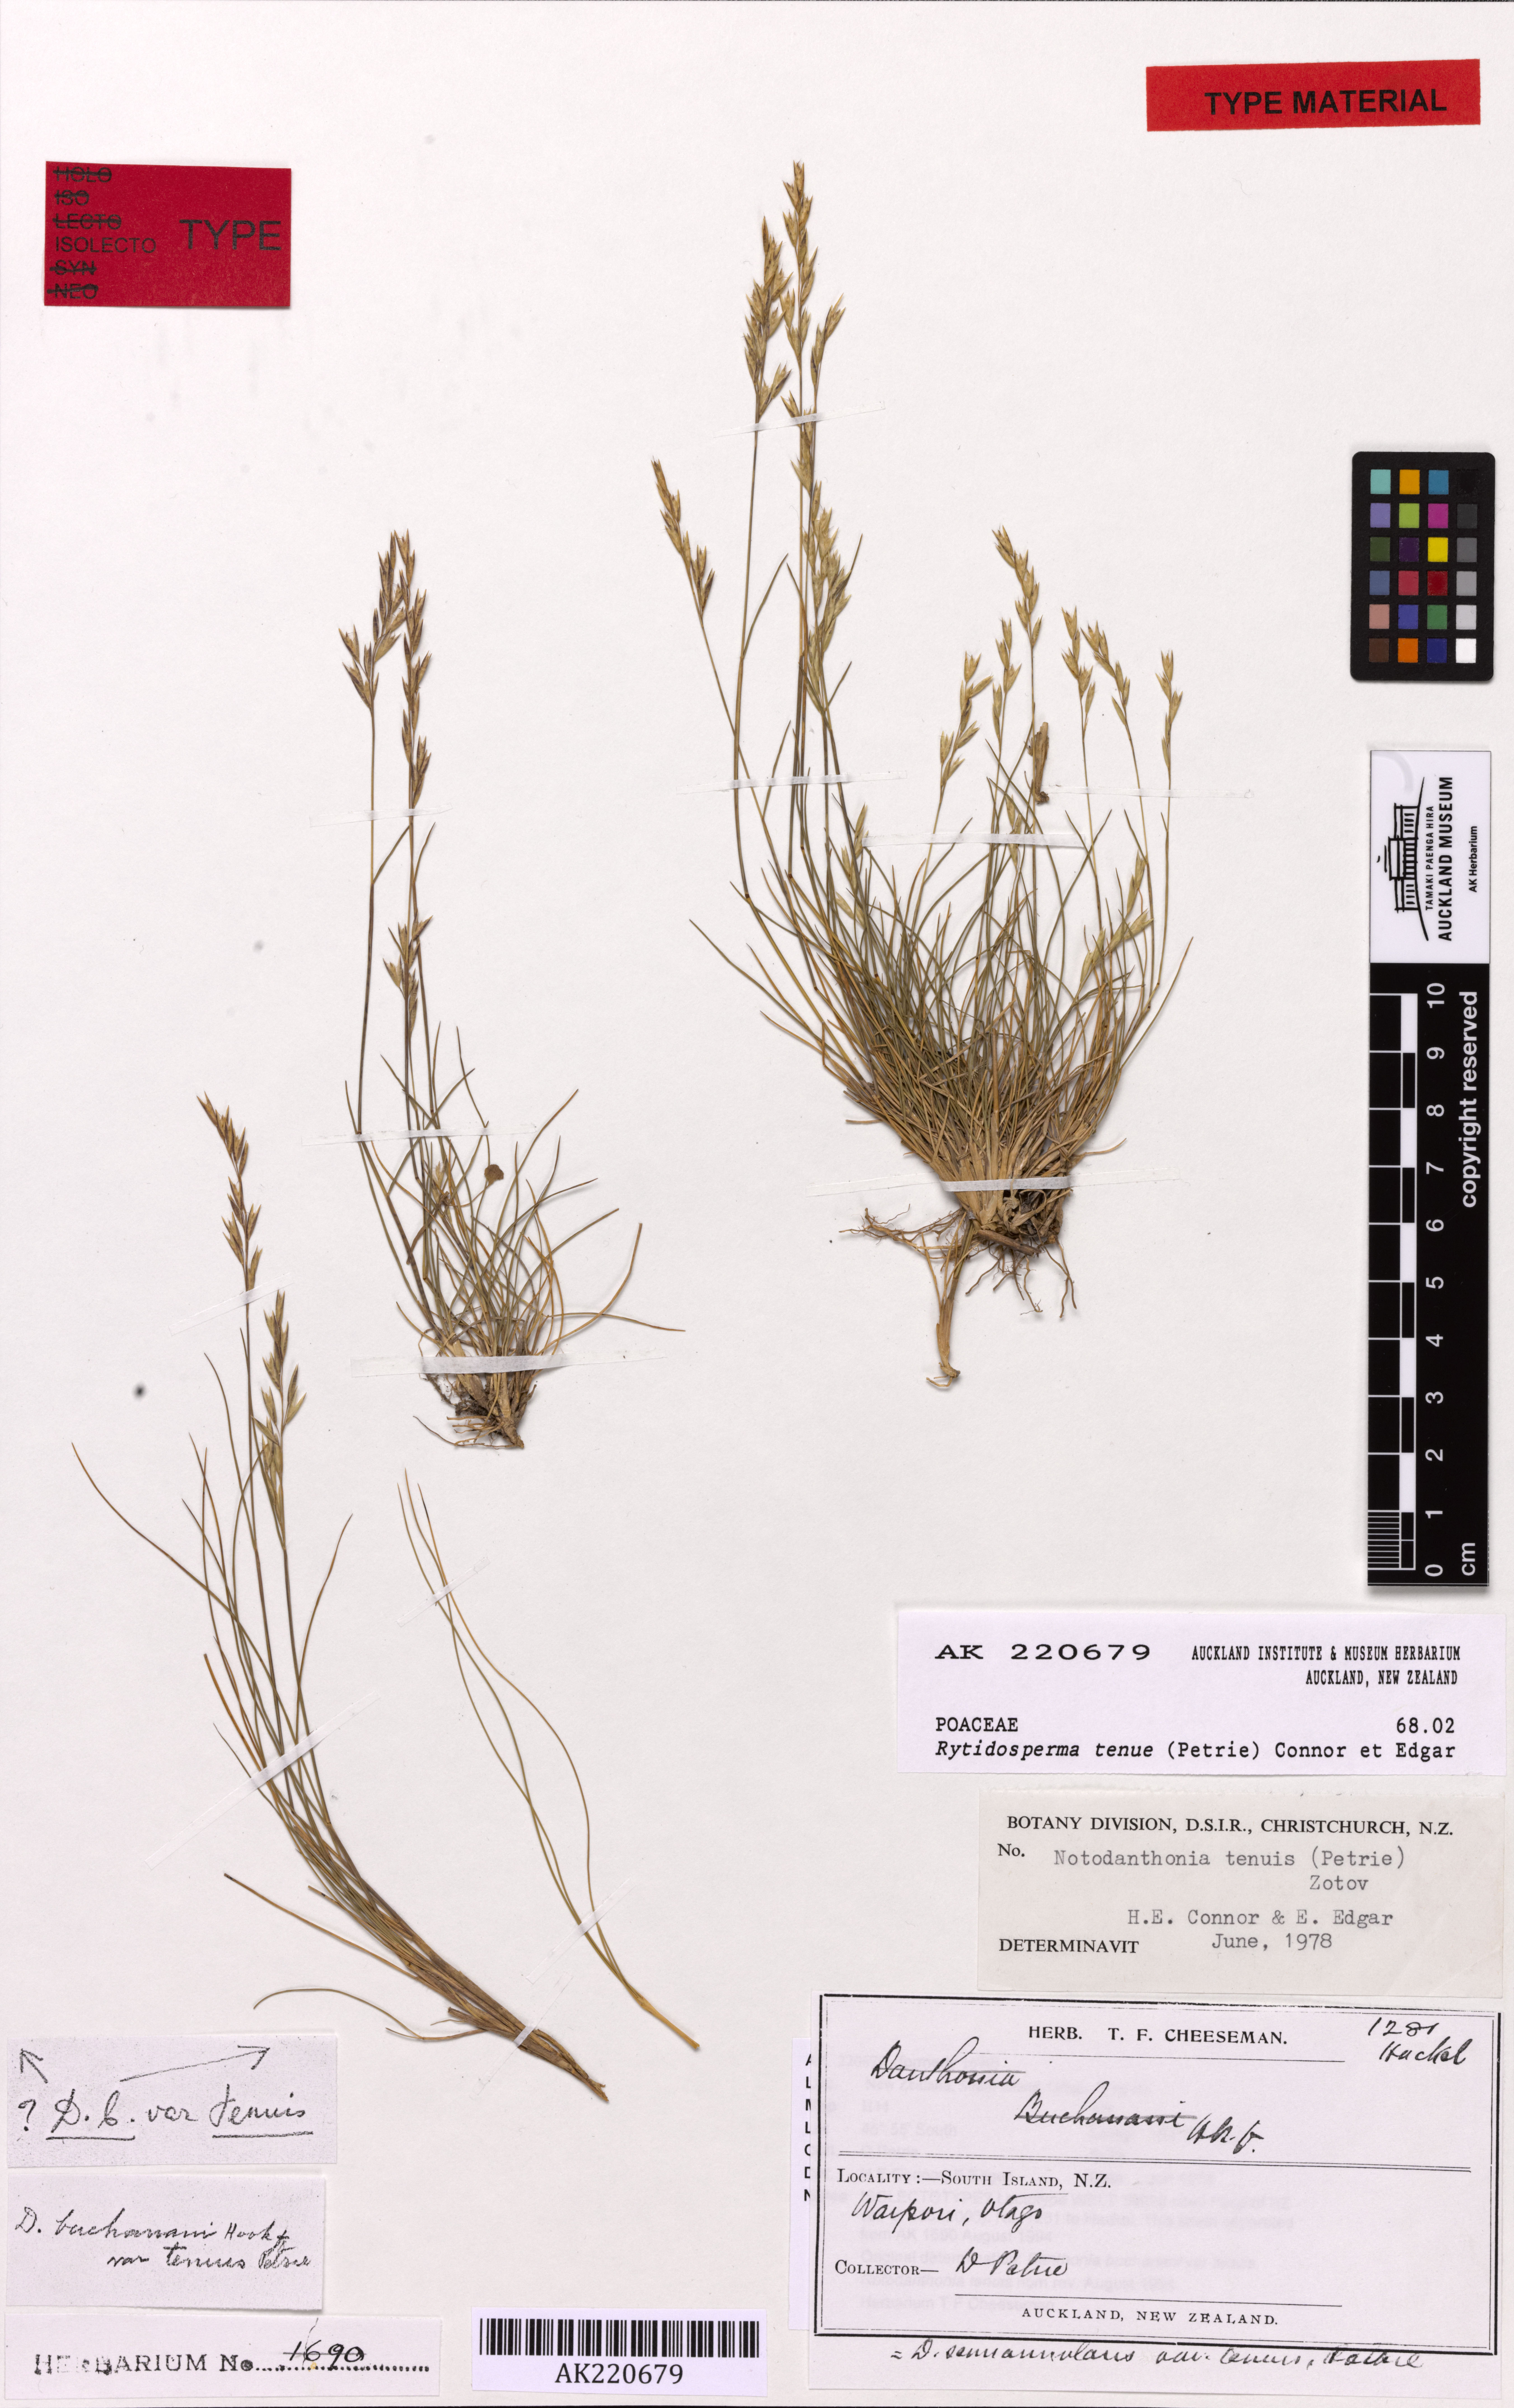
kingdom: Plantae
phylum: Tracheophyta
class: Liliopsida
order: Poales
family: Poaceae
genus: Rytidosperma
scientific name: Rytidosperma tenue
